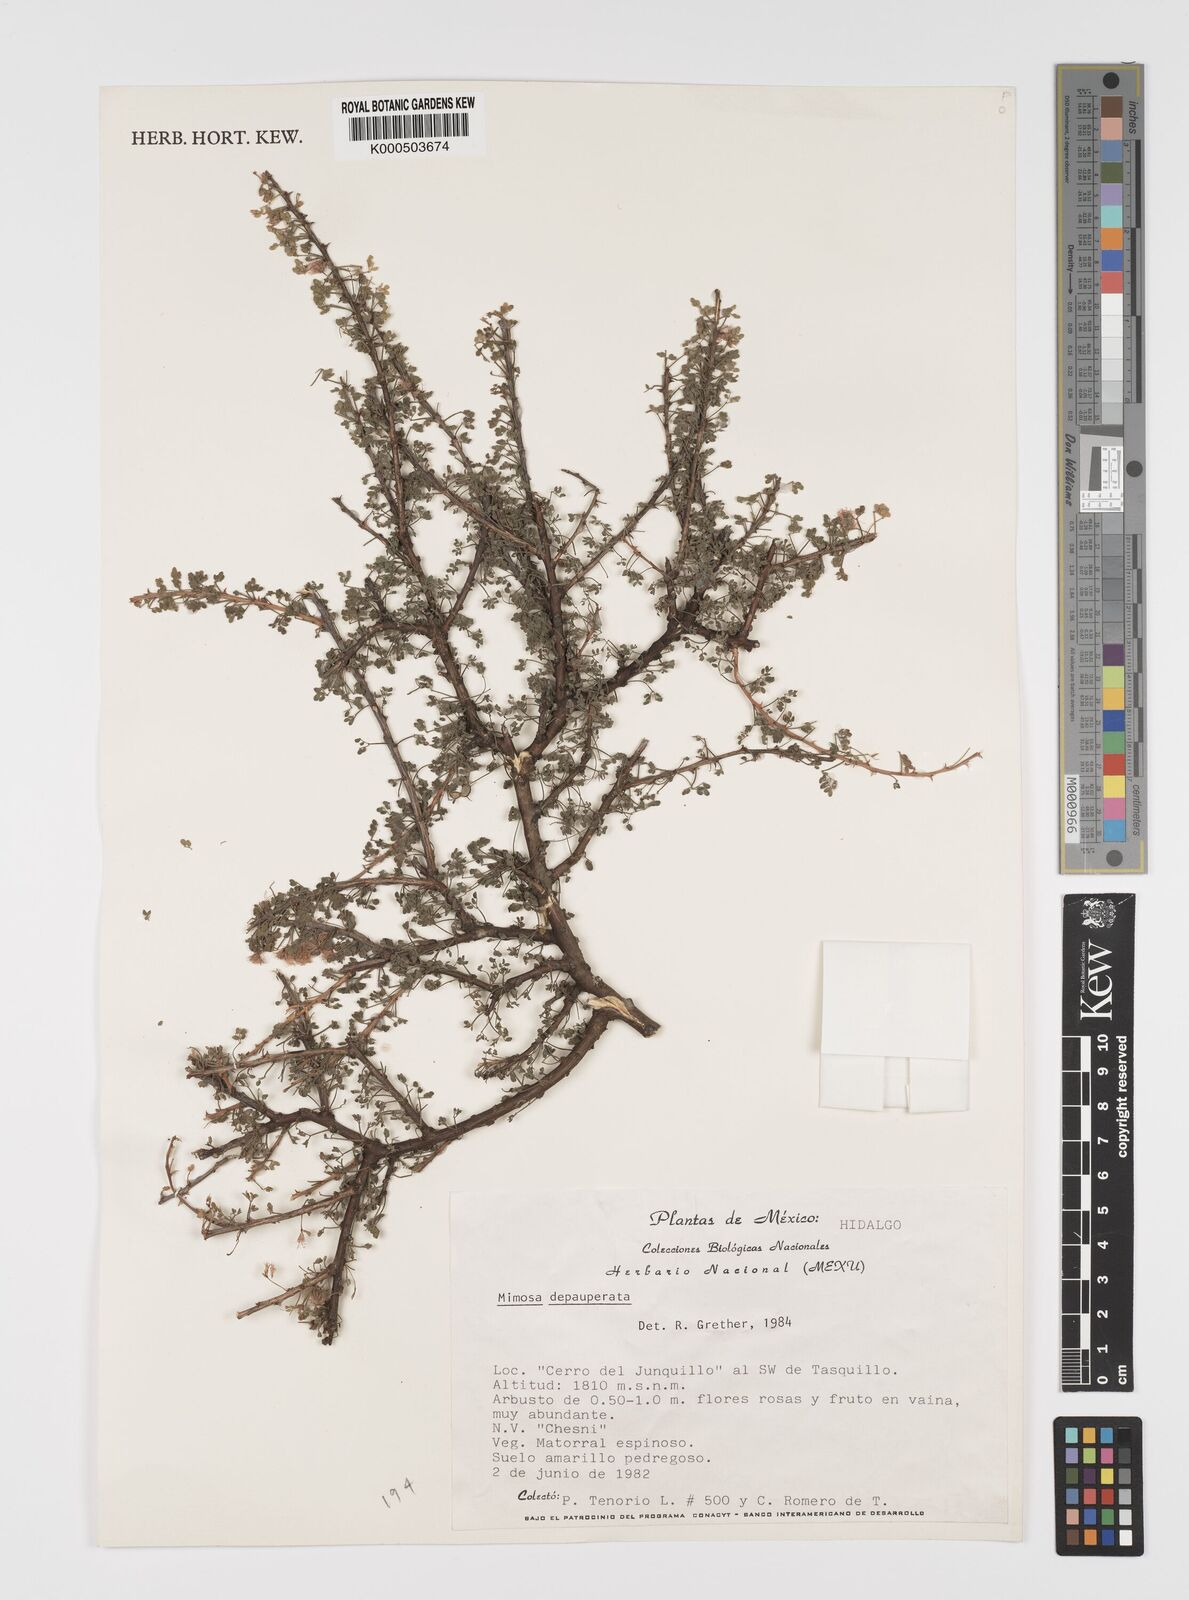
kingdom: Plantae
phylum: Tracheophyta
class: Magnoliopsida
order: Fabales
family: Fabaceae
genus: Mimosa
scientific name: Mimosa depauperata
